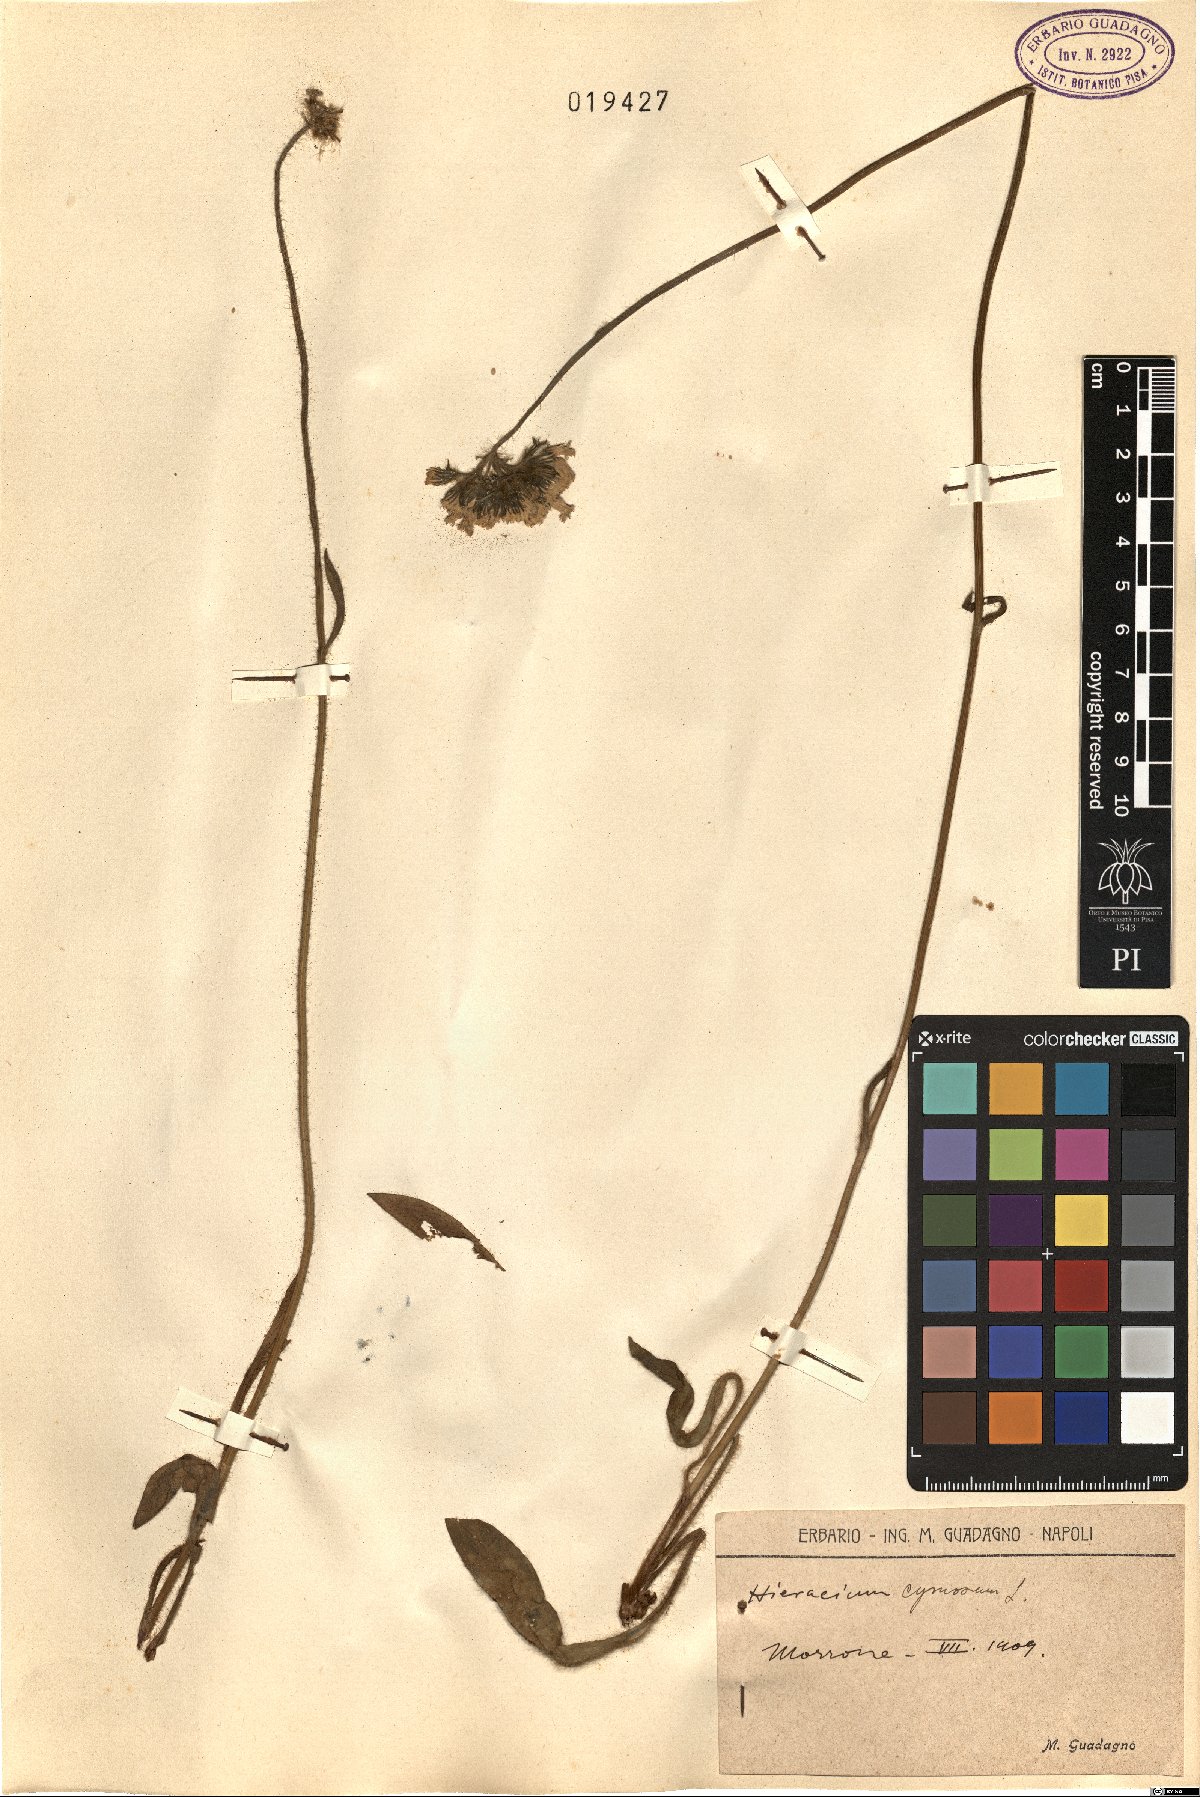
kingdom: Plantae
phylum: Tracheophyta
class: Magnoliopsida
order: Asterales
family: Asteraceae
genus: Pilosella
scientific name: Pilosella cymosa
